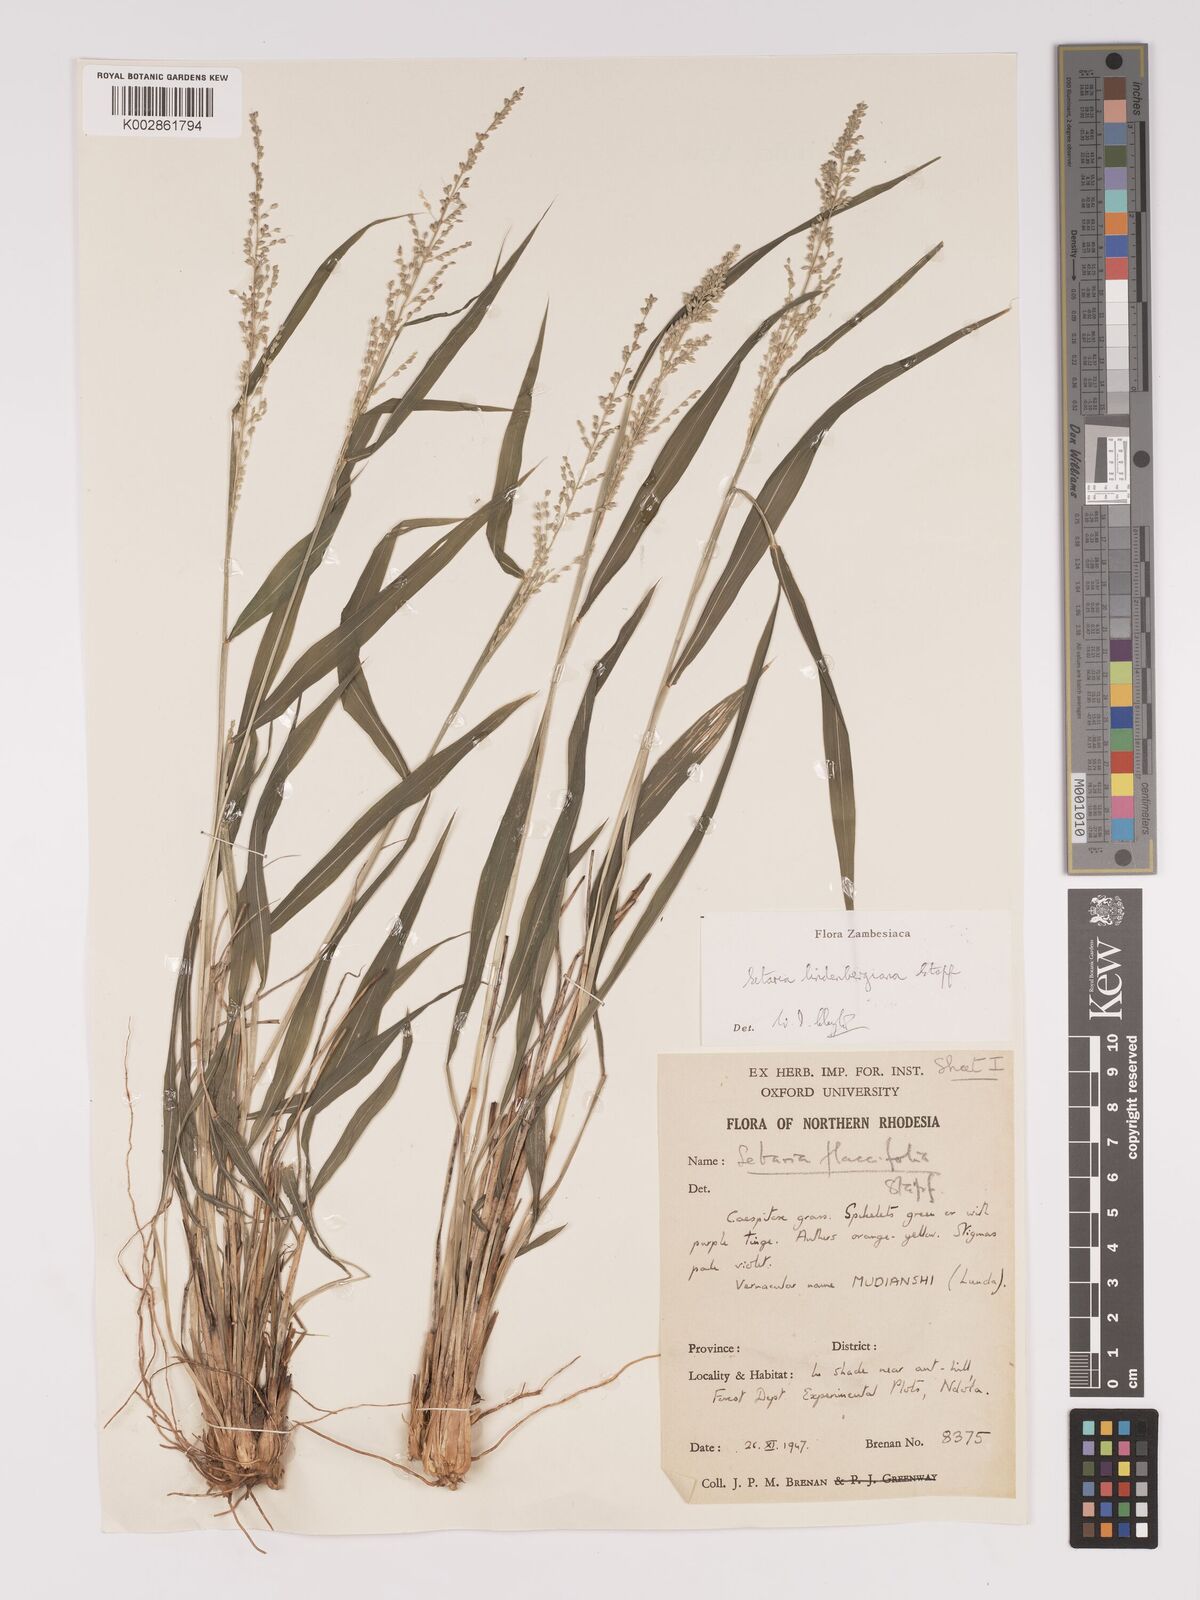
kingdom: Plantae
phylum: Tracheophyta
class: Liliopsida
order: Poales
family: Poaceae
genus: Setaria
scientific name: Setaria lindenbergiana
